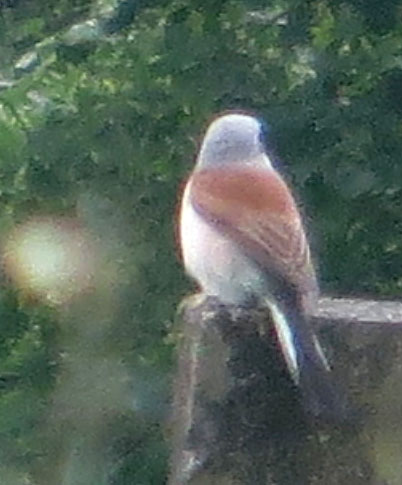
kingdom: Animalia
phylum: Chordata
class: Aves
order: Passeriformes
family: Laniidae
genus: Lanius
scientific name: Lanius collurio
